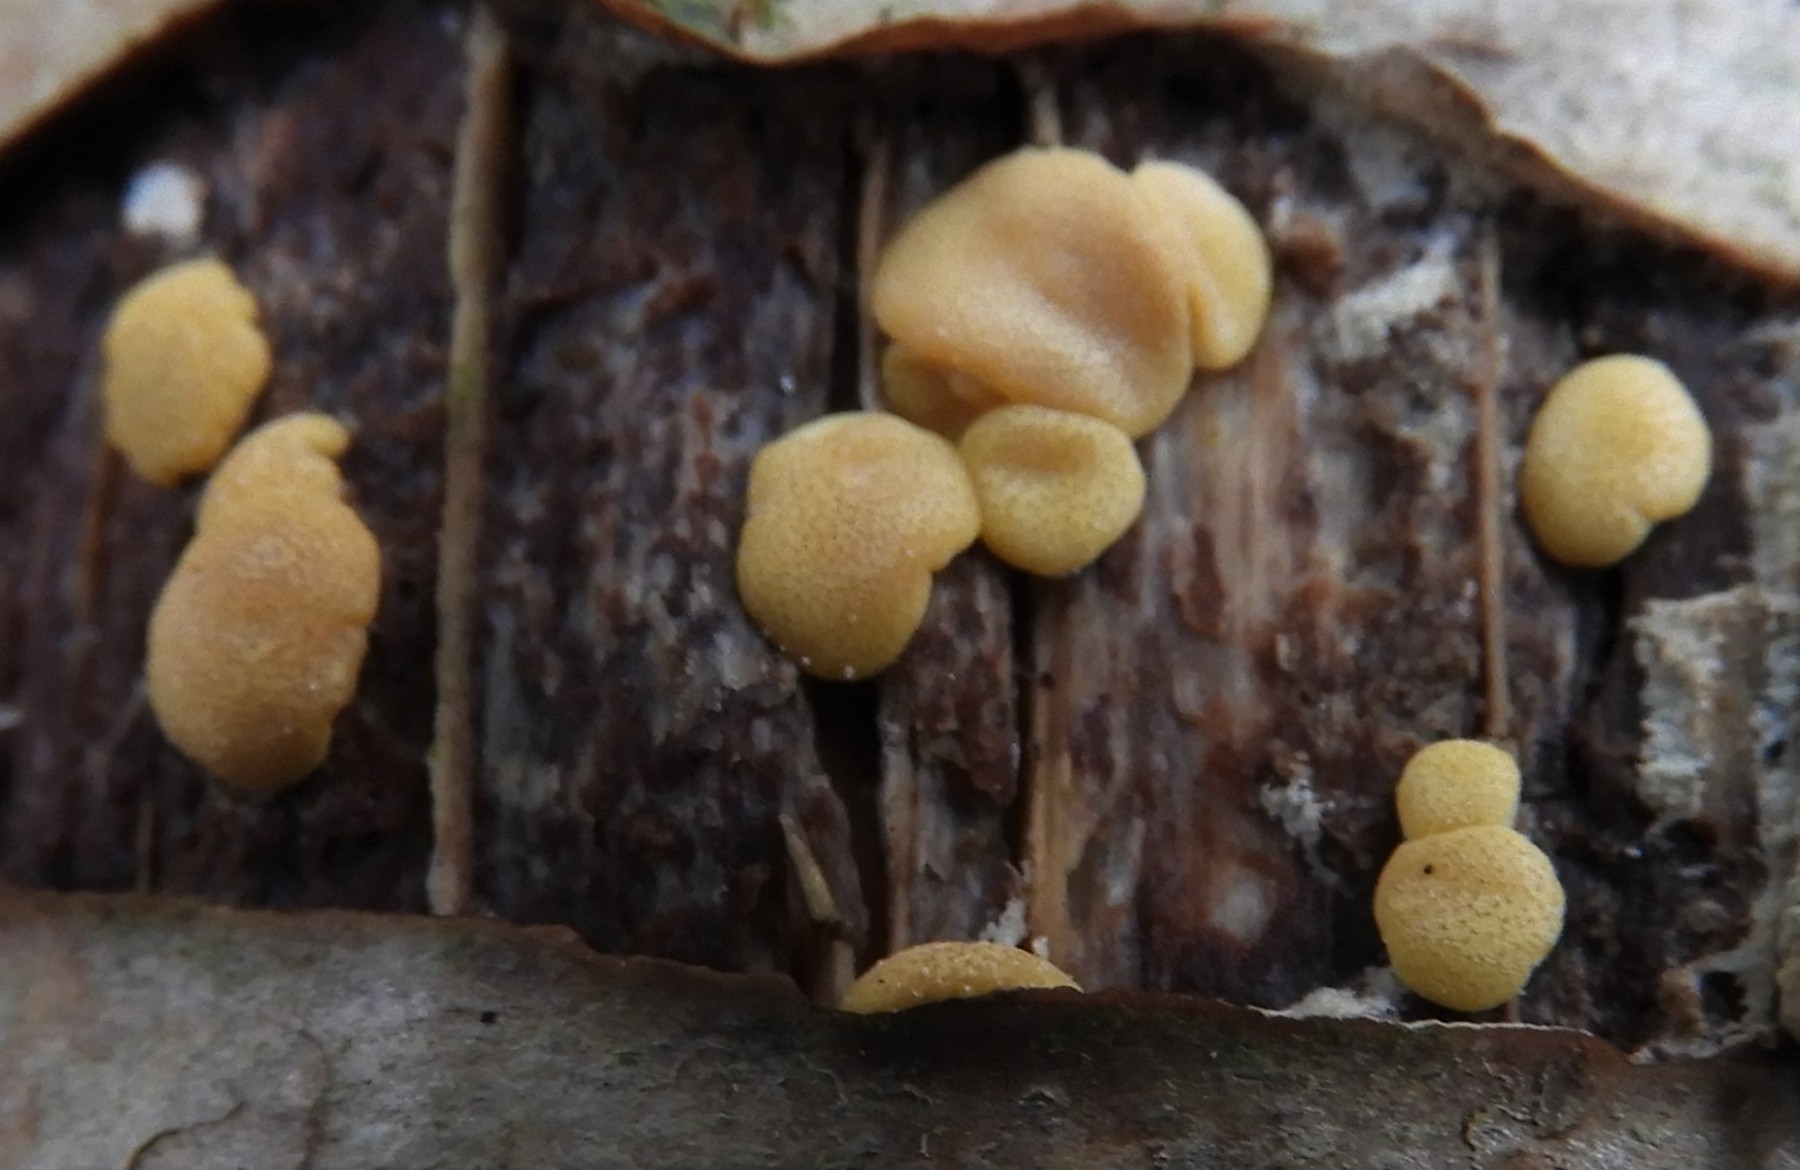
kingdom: Fungi
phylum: Ascomycota
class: Sordariomycetes
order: Hypocreales
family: Hypocreaceae
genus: Trichoderma
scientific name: Trichoderma aureoviride
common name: æggegul kødkerne
